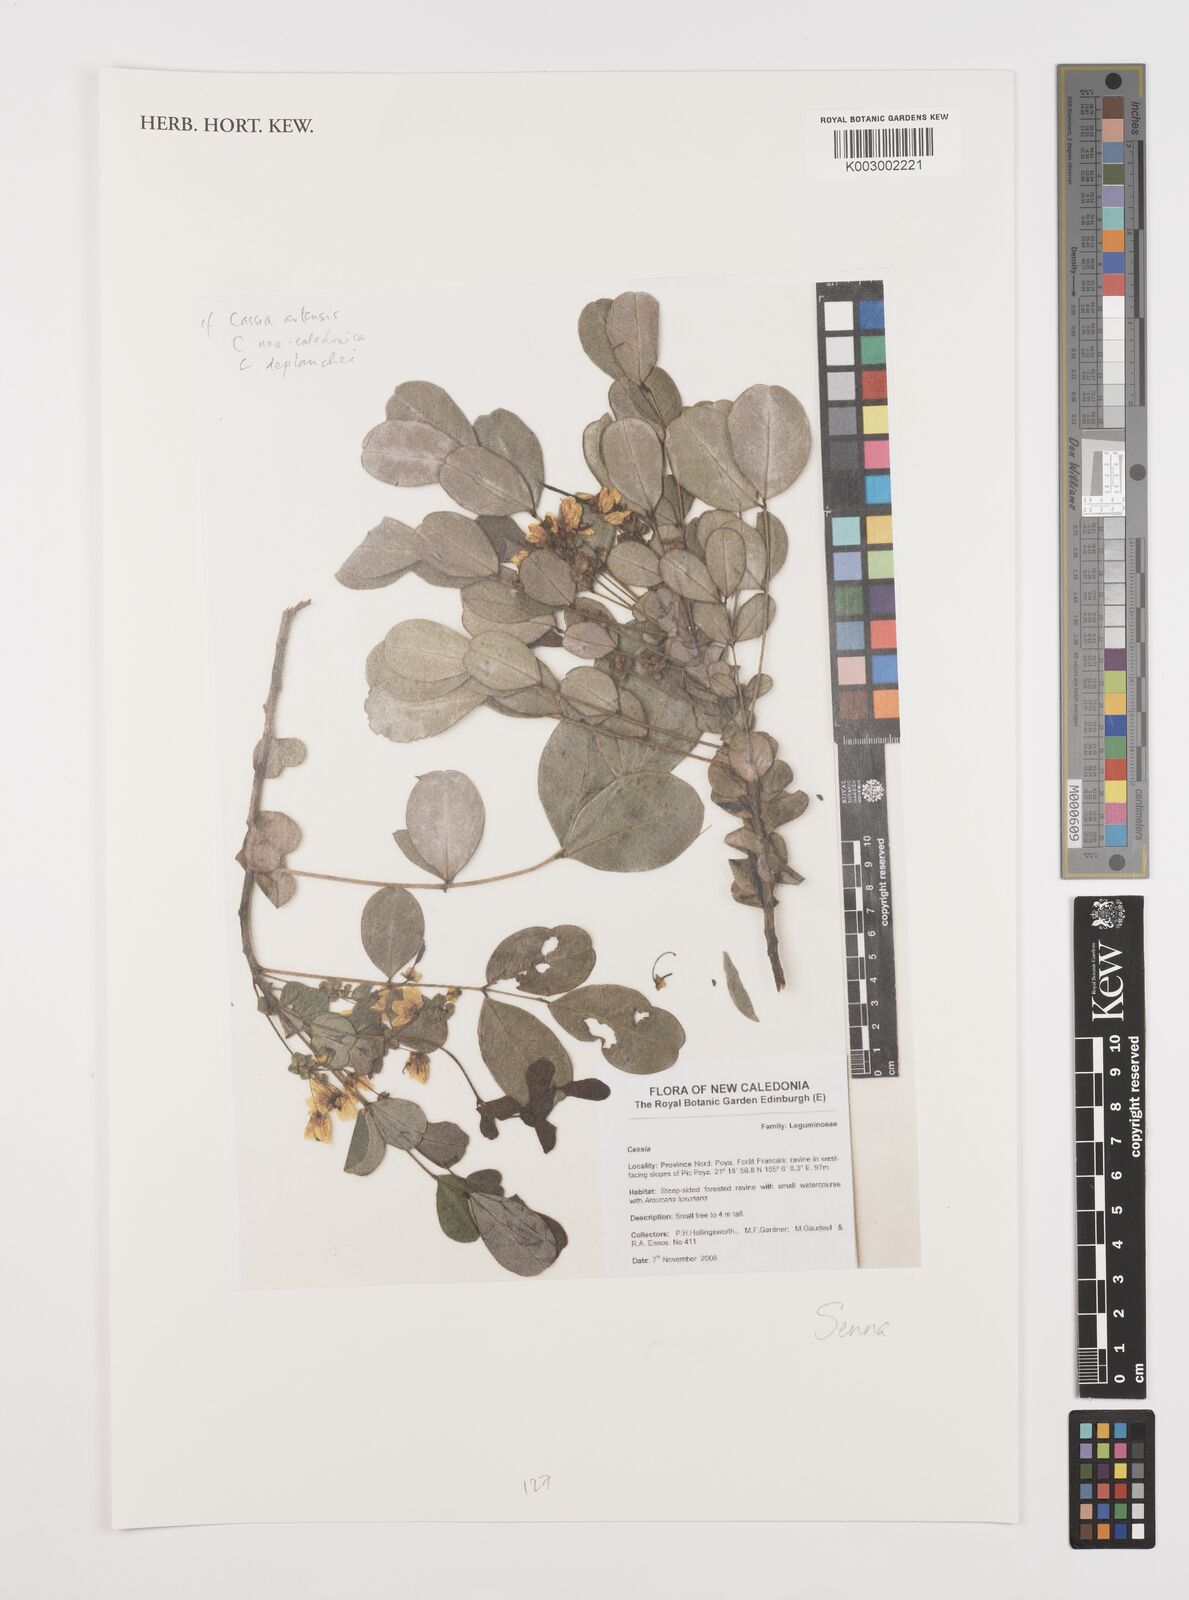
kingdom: Plantae
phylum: Tracheophyta
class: Magnoliopsida
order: Fabales
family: Fabaceae
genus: Cassia
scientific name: Cassia
